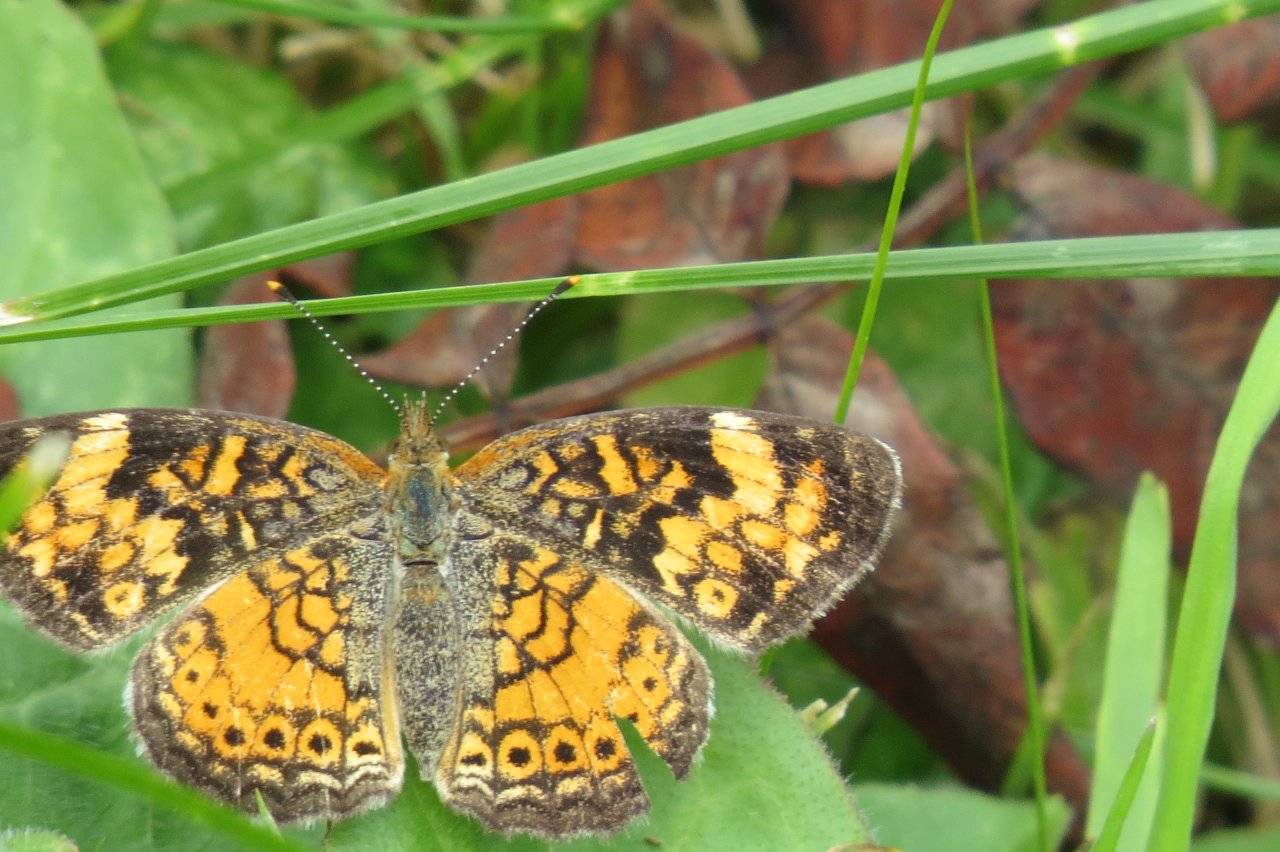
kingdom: Animalia
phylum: Arthropoda
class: Insecta
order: Lepidoptera
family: Nymphalidae
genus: Phyciodes
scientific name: Phyciodes tharos
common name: Northern Crescent
